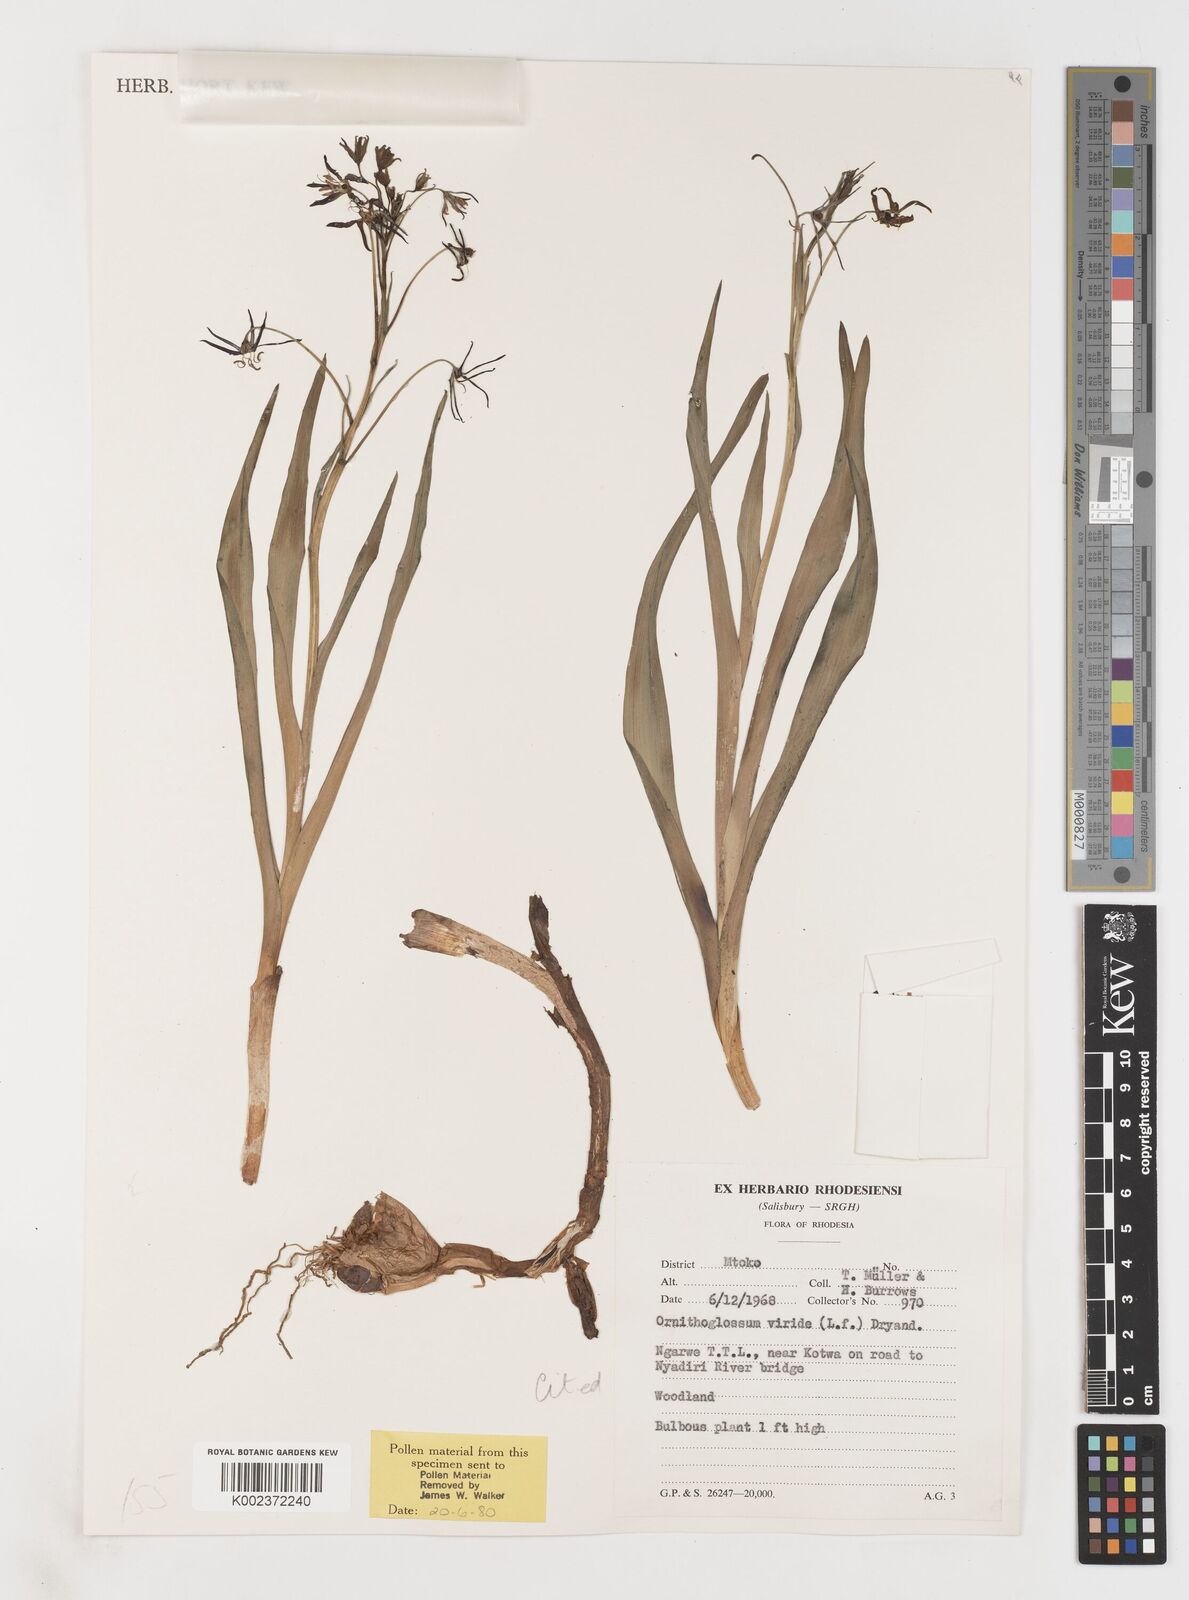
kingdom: Plantae
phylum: Tracheophyta
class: Liliopsida
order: Liliales
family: Colchicaceae
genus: Ornithoglossum
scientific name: Ornithoglossum vulgare
